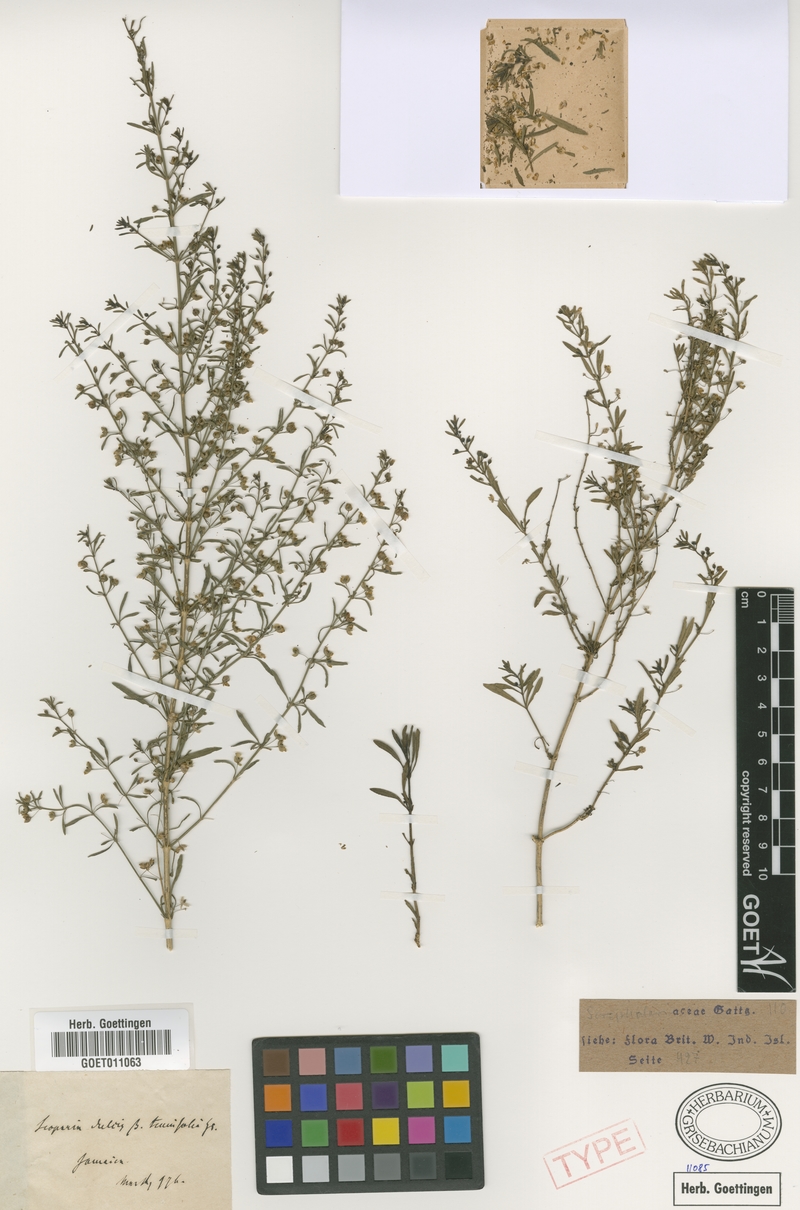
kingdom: Plantae
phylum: Tracheophyta
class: Magnoliopsida
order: Lamiales
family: Plantaginaceae
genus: Scoparia
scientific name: Scoparia dulcis
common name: Scoparia-weed
